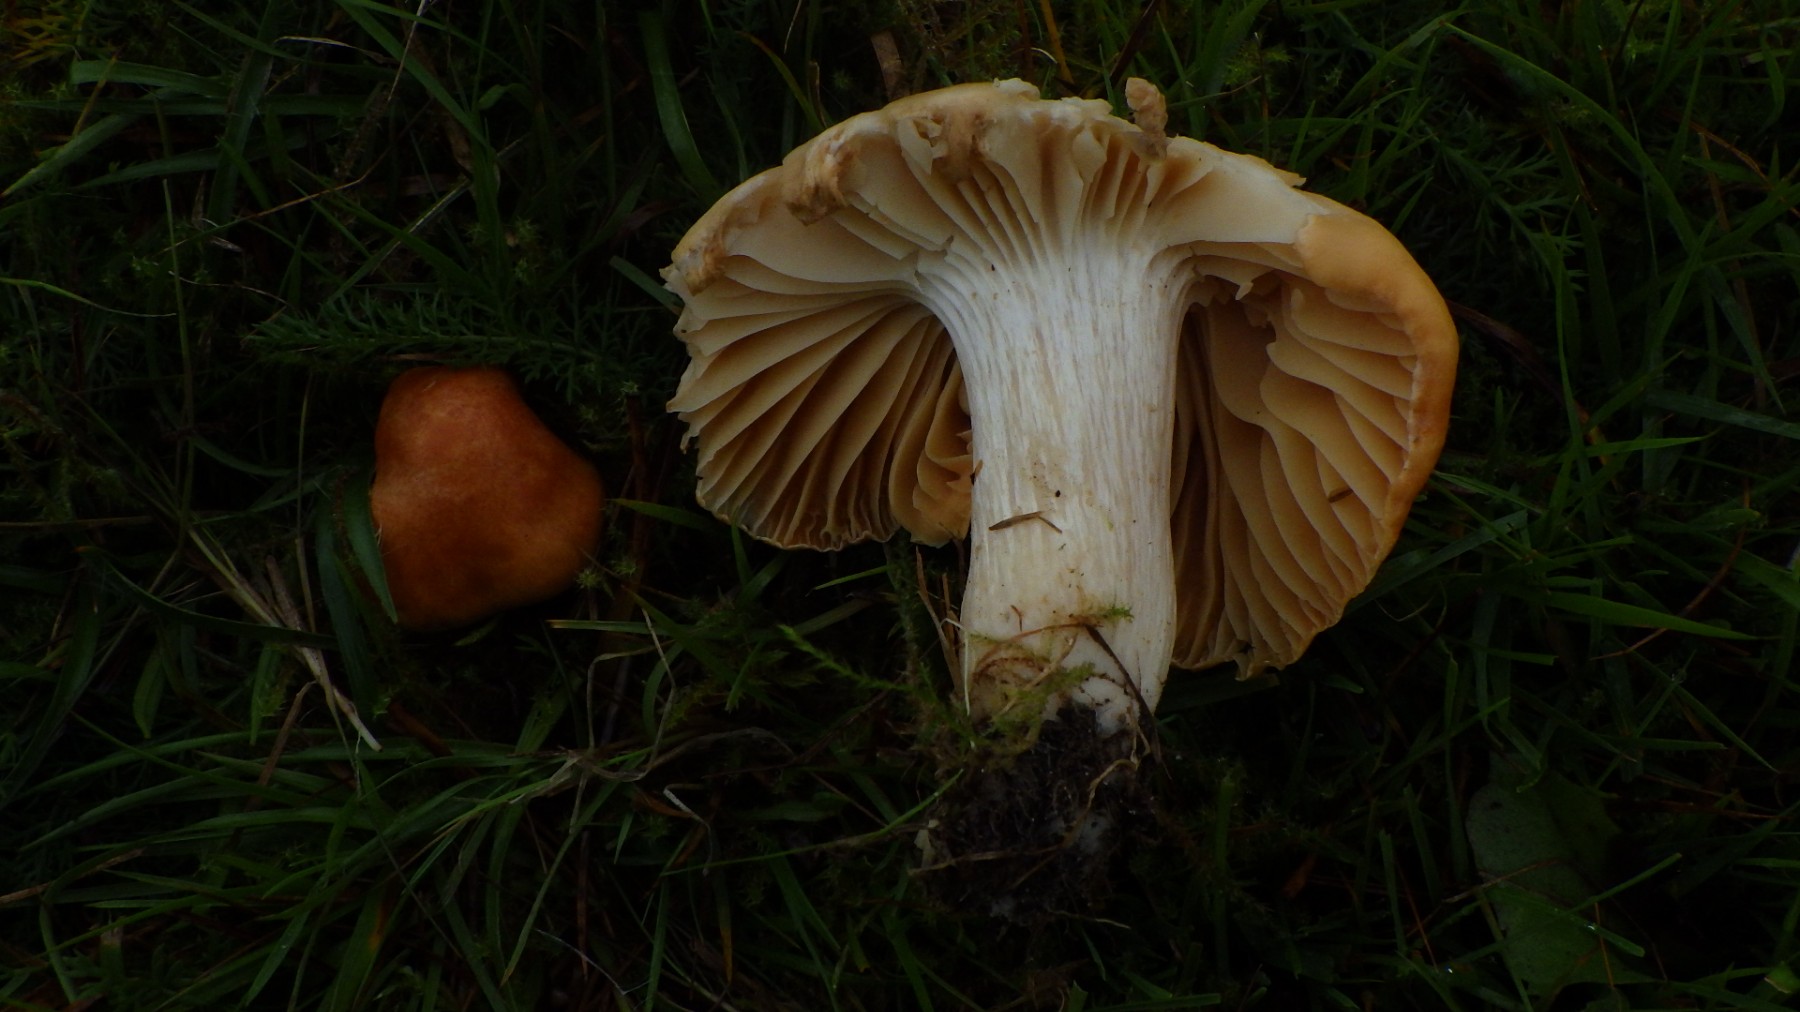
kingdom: Fungi
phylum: Basidiomycota
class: Agaricomycetes
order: Agaricales
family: Hygrophoraceae
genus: Cuphophyllus
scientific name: Cuphophyllus pratensis
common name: eng-vokshat
